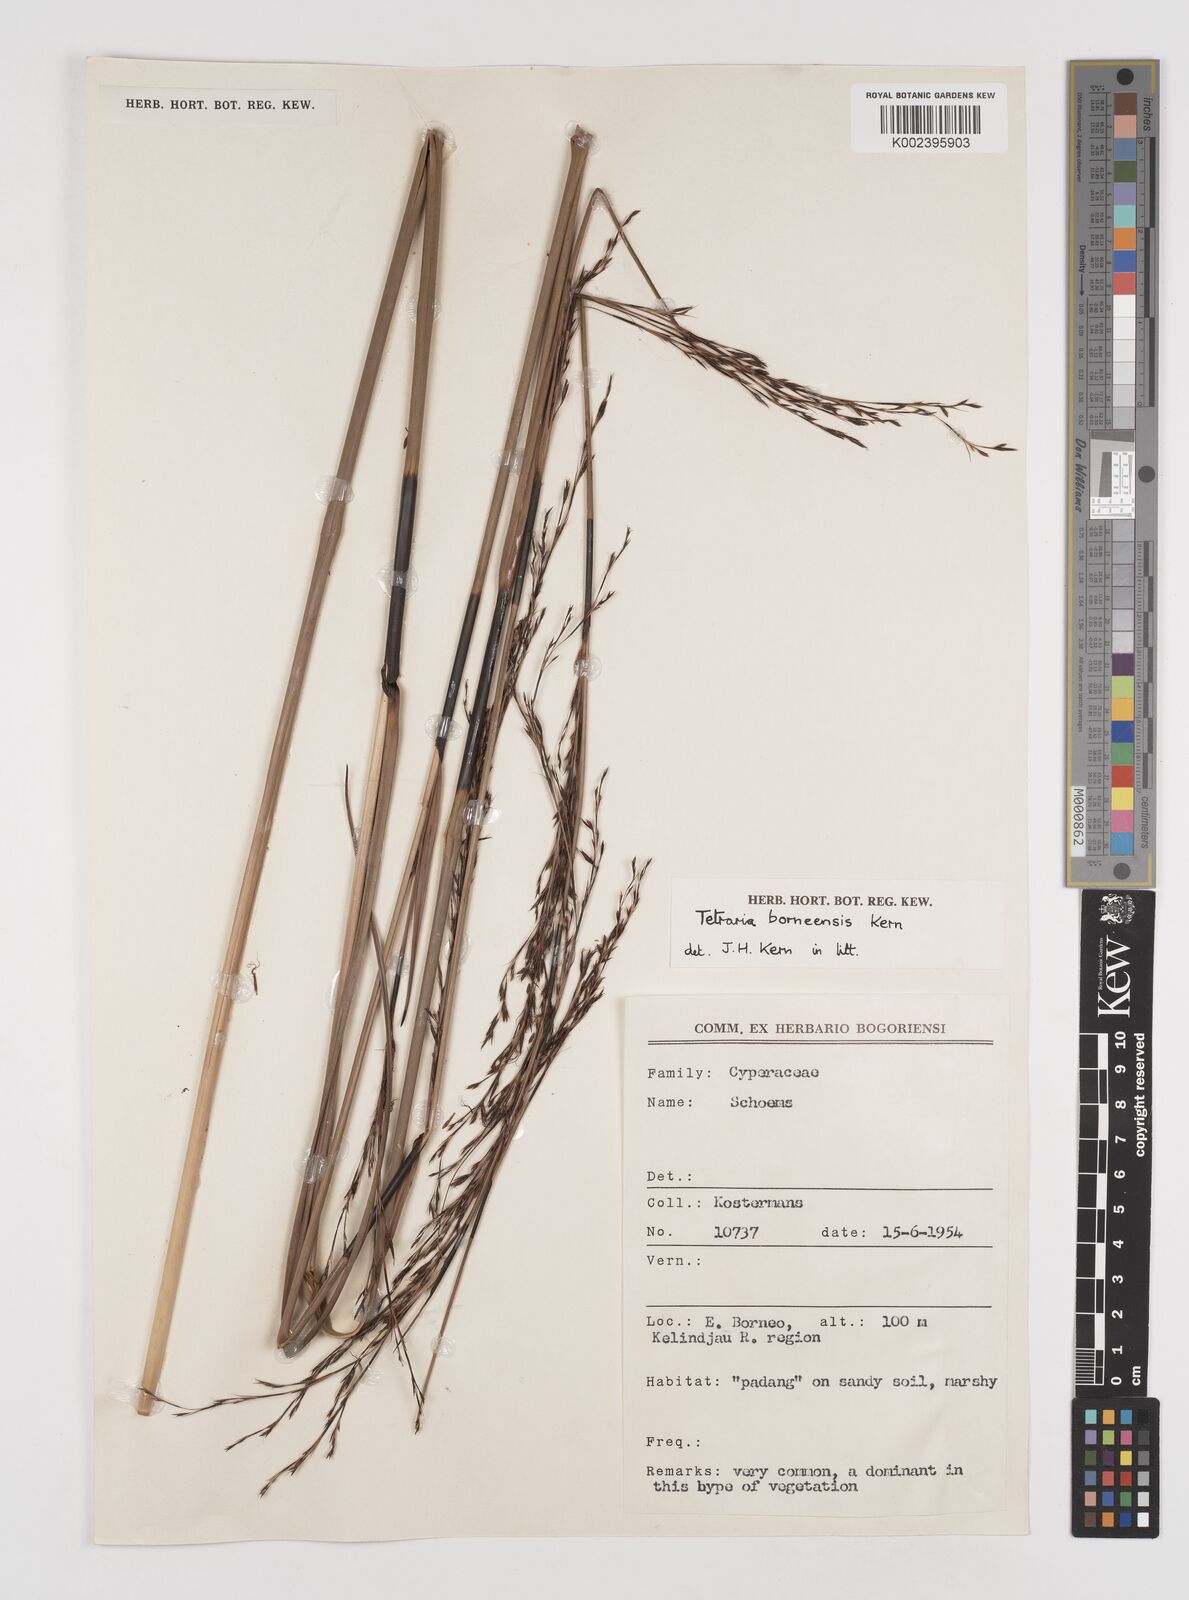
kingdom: Plantae
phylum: Tracheophyta
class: Liliopsida
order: Poales
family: Cyperaceae
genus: Tetraria
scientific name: Tetraria borneensis
